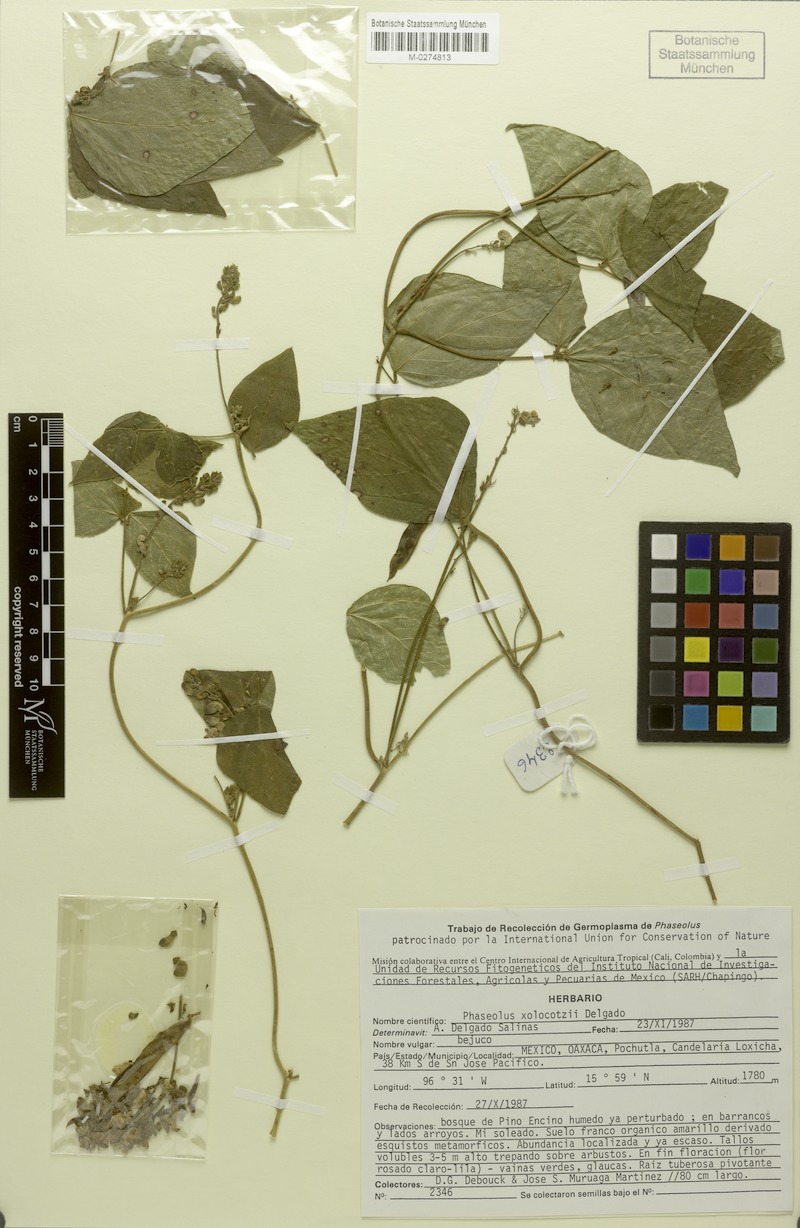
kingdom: Plantae
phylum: Tracheophyta
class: Magnoliopsida
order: Fabales
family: Fabaceae
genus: Phaseolus
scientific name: Phaseolus xolocotzii
